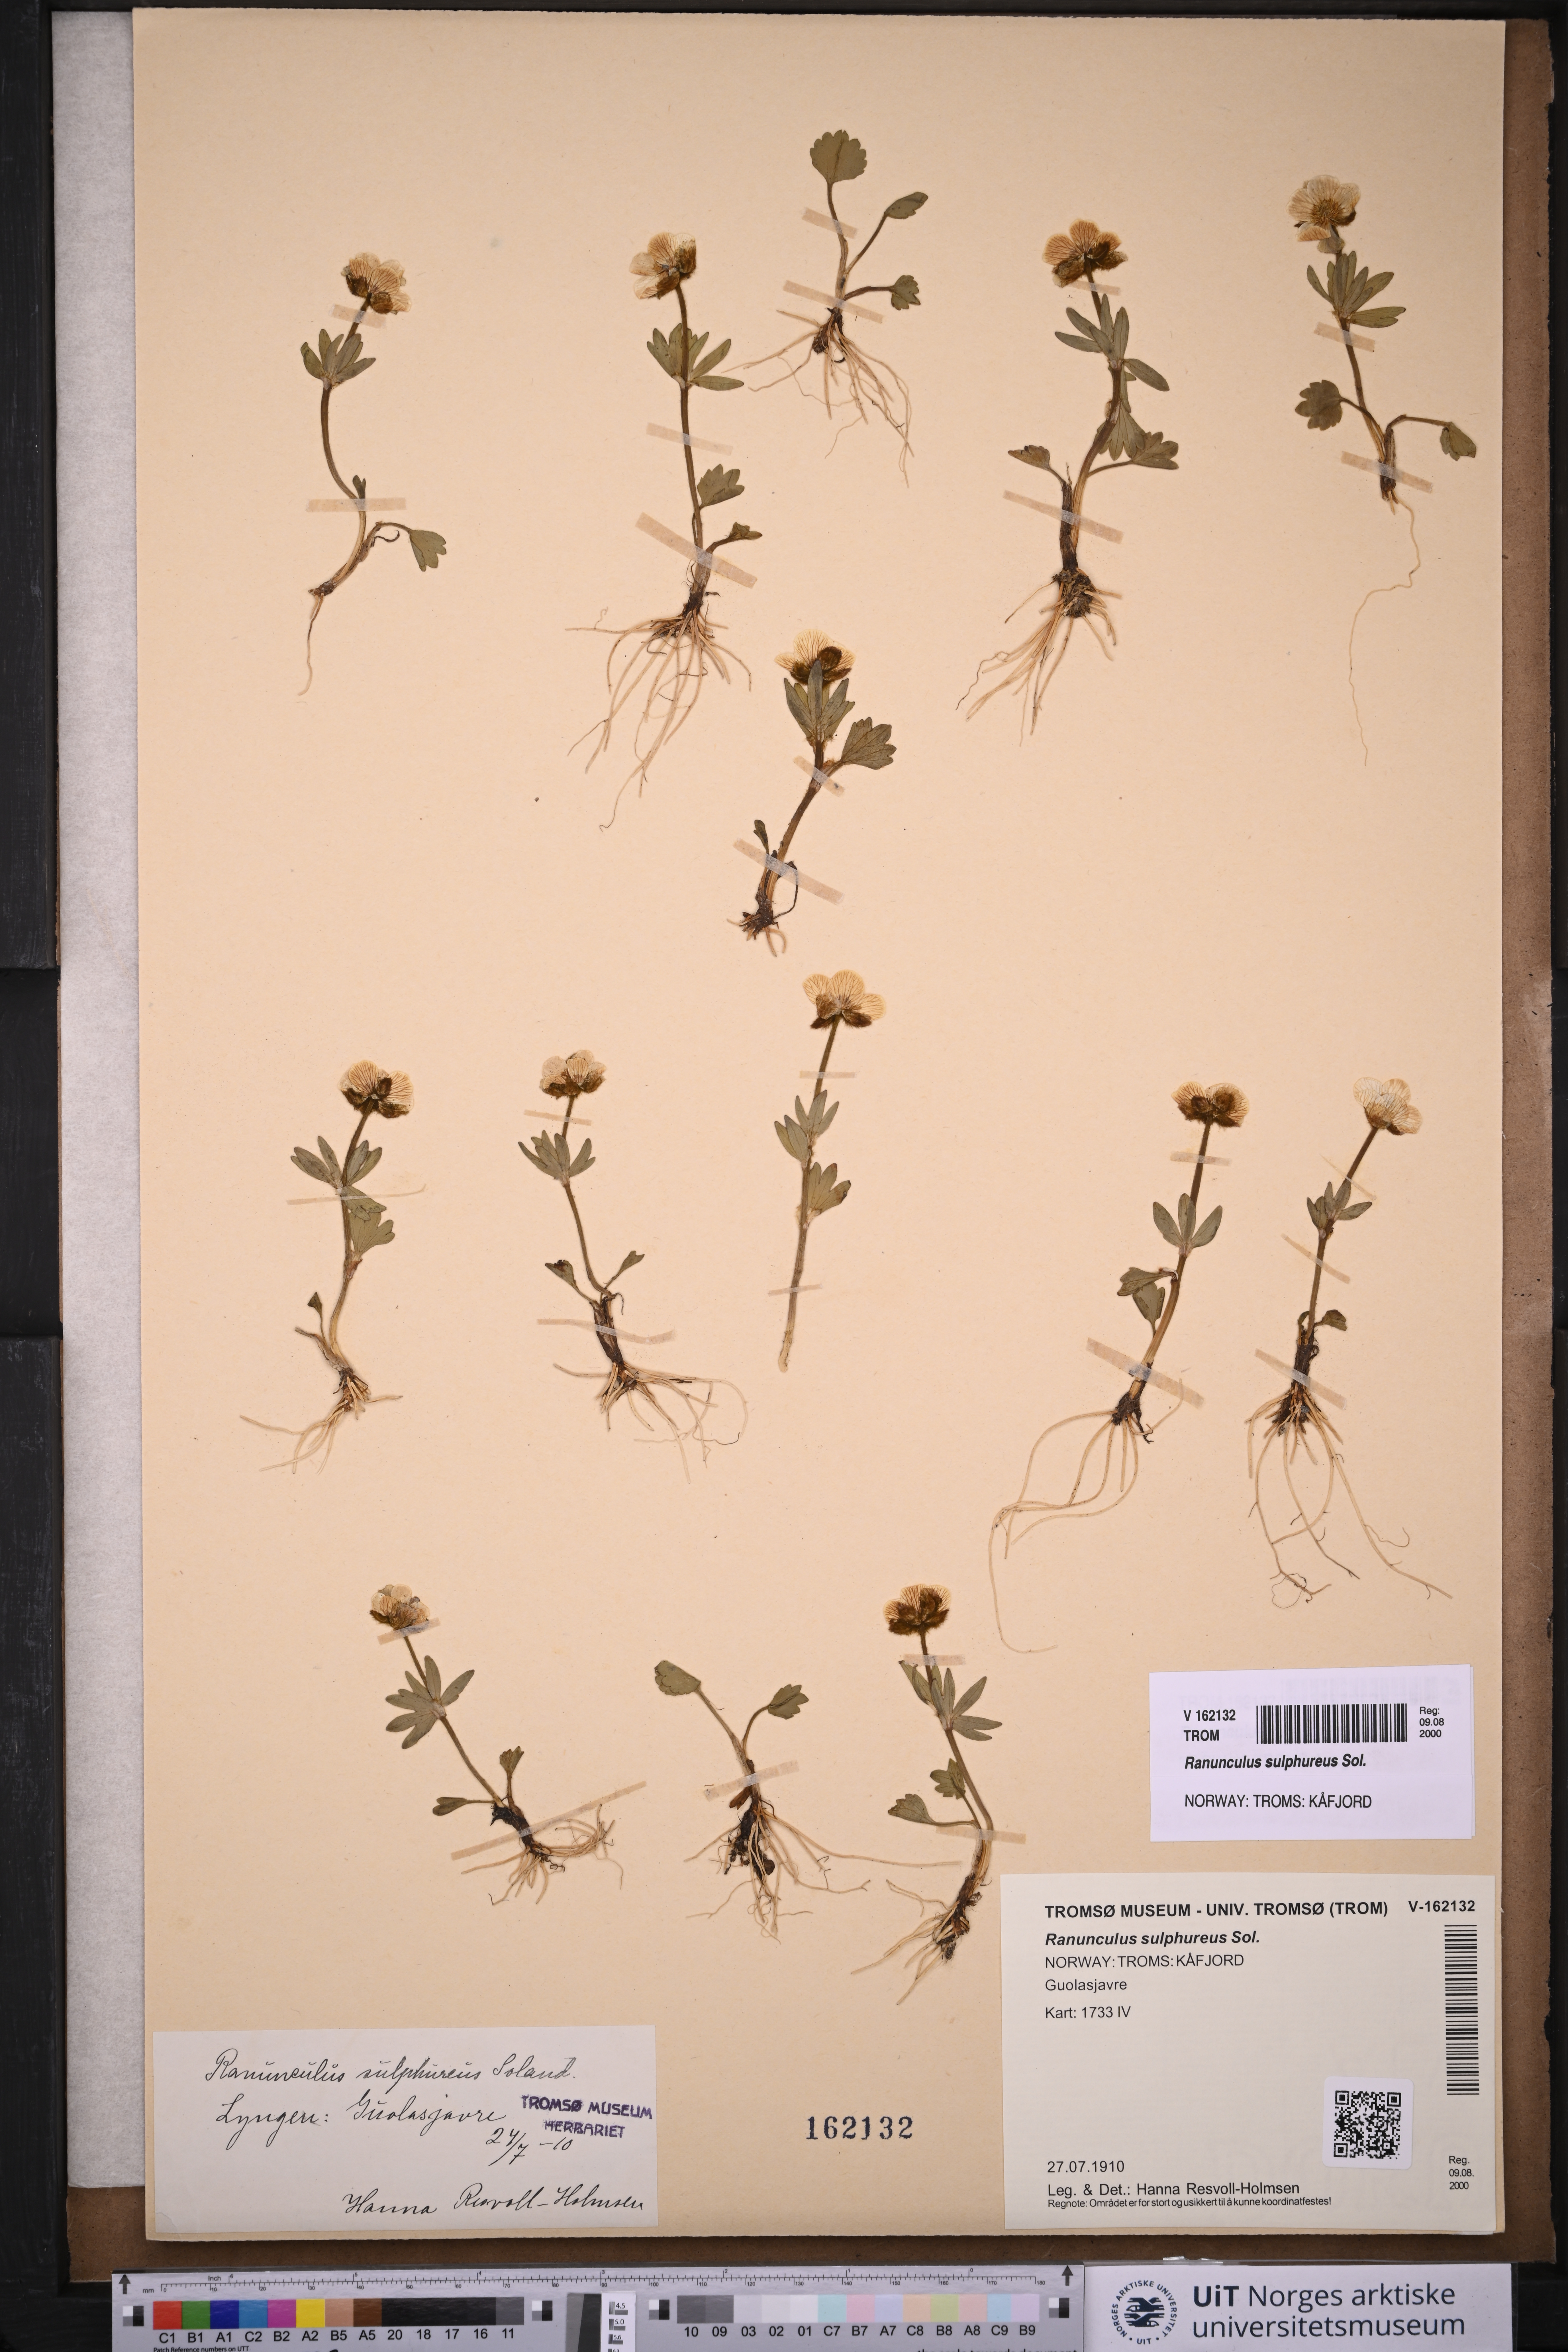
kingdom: Plantae
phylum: Tracheophyta
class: Magnoliopsida
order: Ranunculales
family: Ranunculaceae
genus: Ranunculus
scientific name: Ranunculus sulphureus
